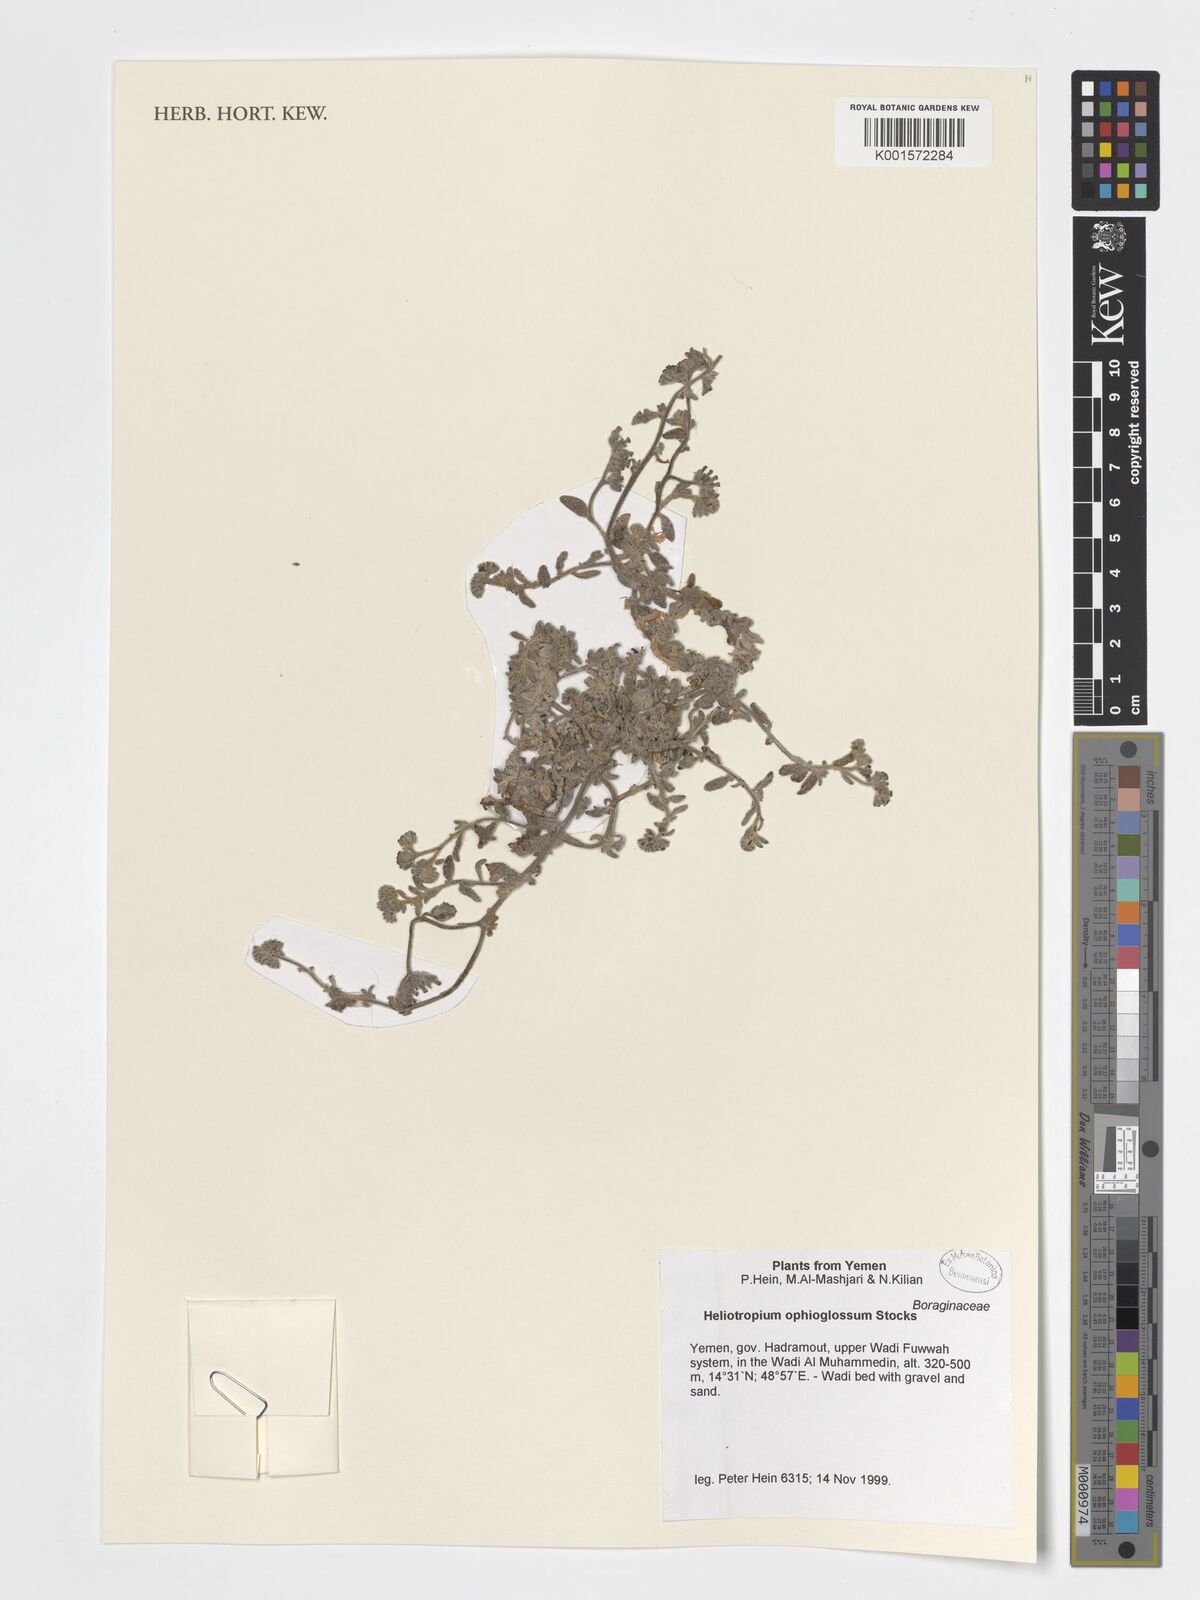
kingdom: Plantae
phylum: Tracheophyta
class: Magnoliopsida
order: Boraginales
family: Heliotropiaceae
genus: Heliotropium
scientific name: Heliotropium ophioglossum
